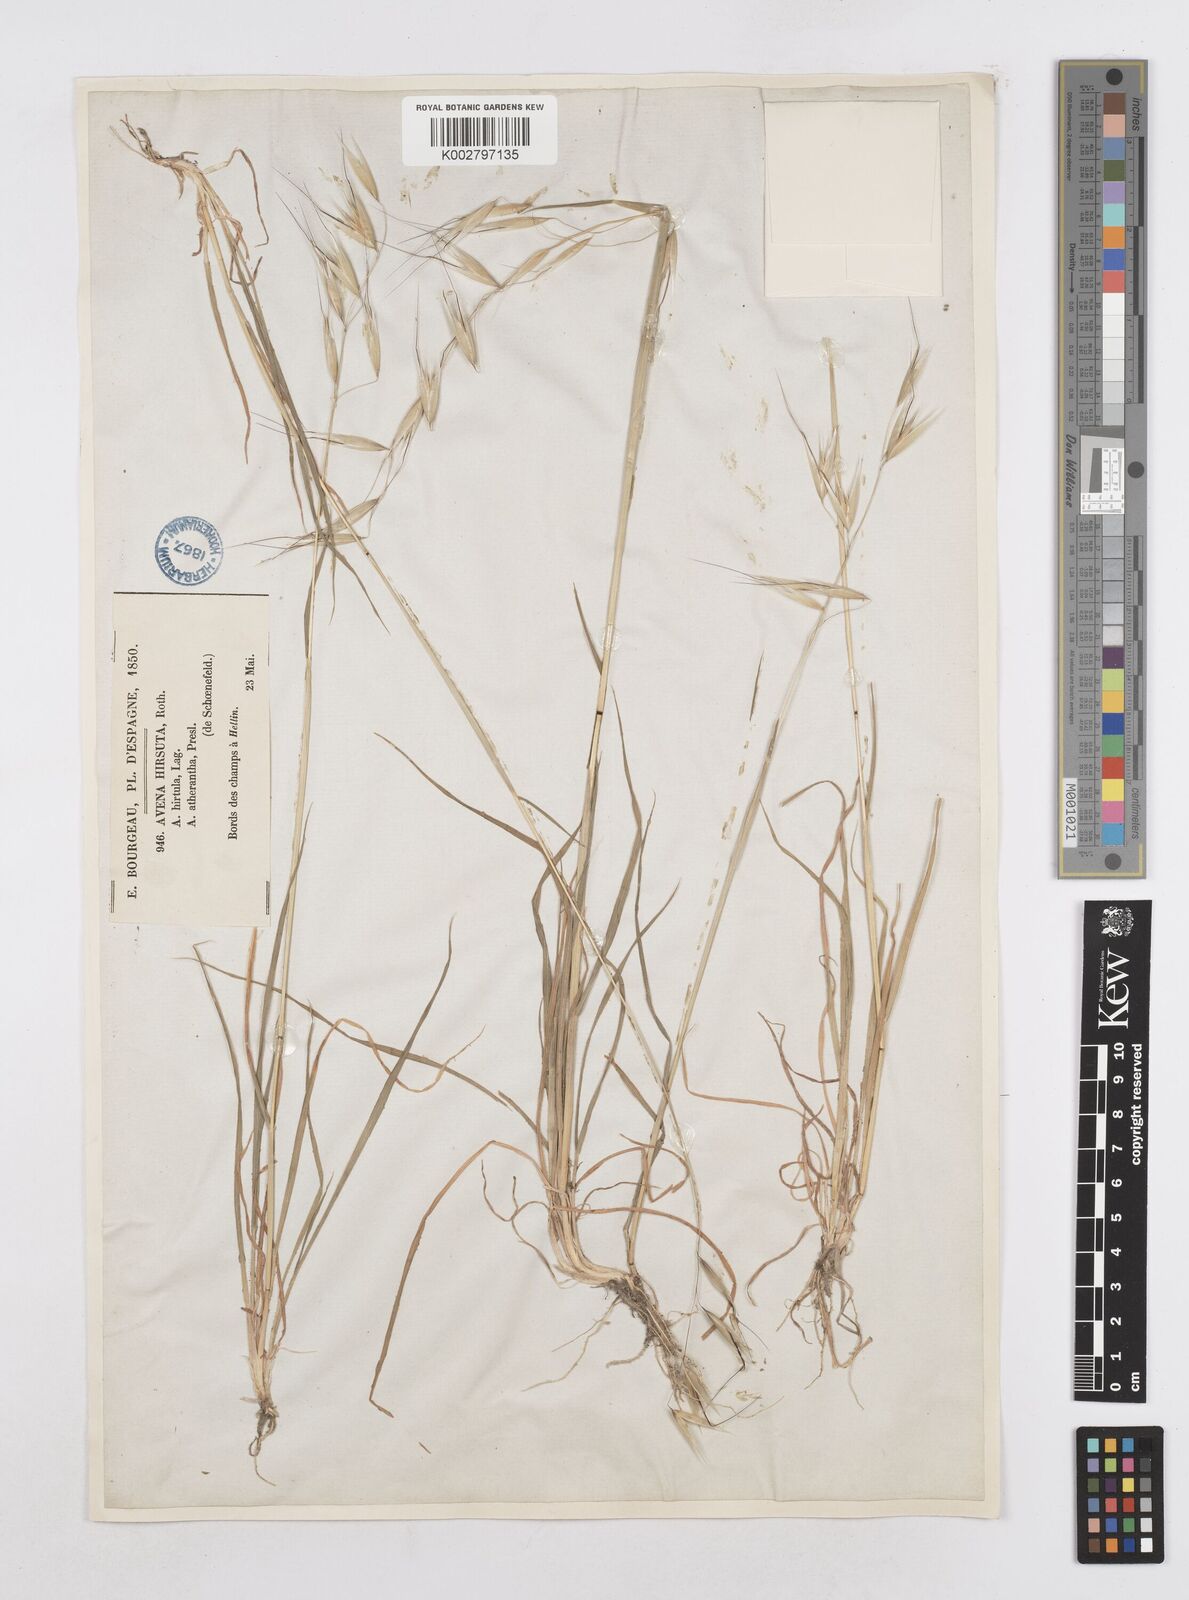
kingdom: Plantae
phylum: Tracheophyta
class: Liliopsida
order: Poales
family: Poaceae
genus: Avena
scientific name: Avena
